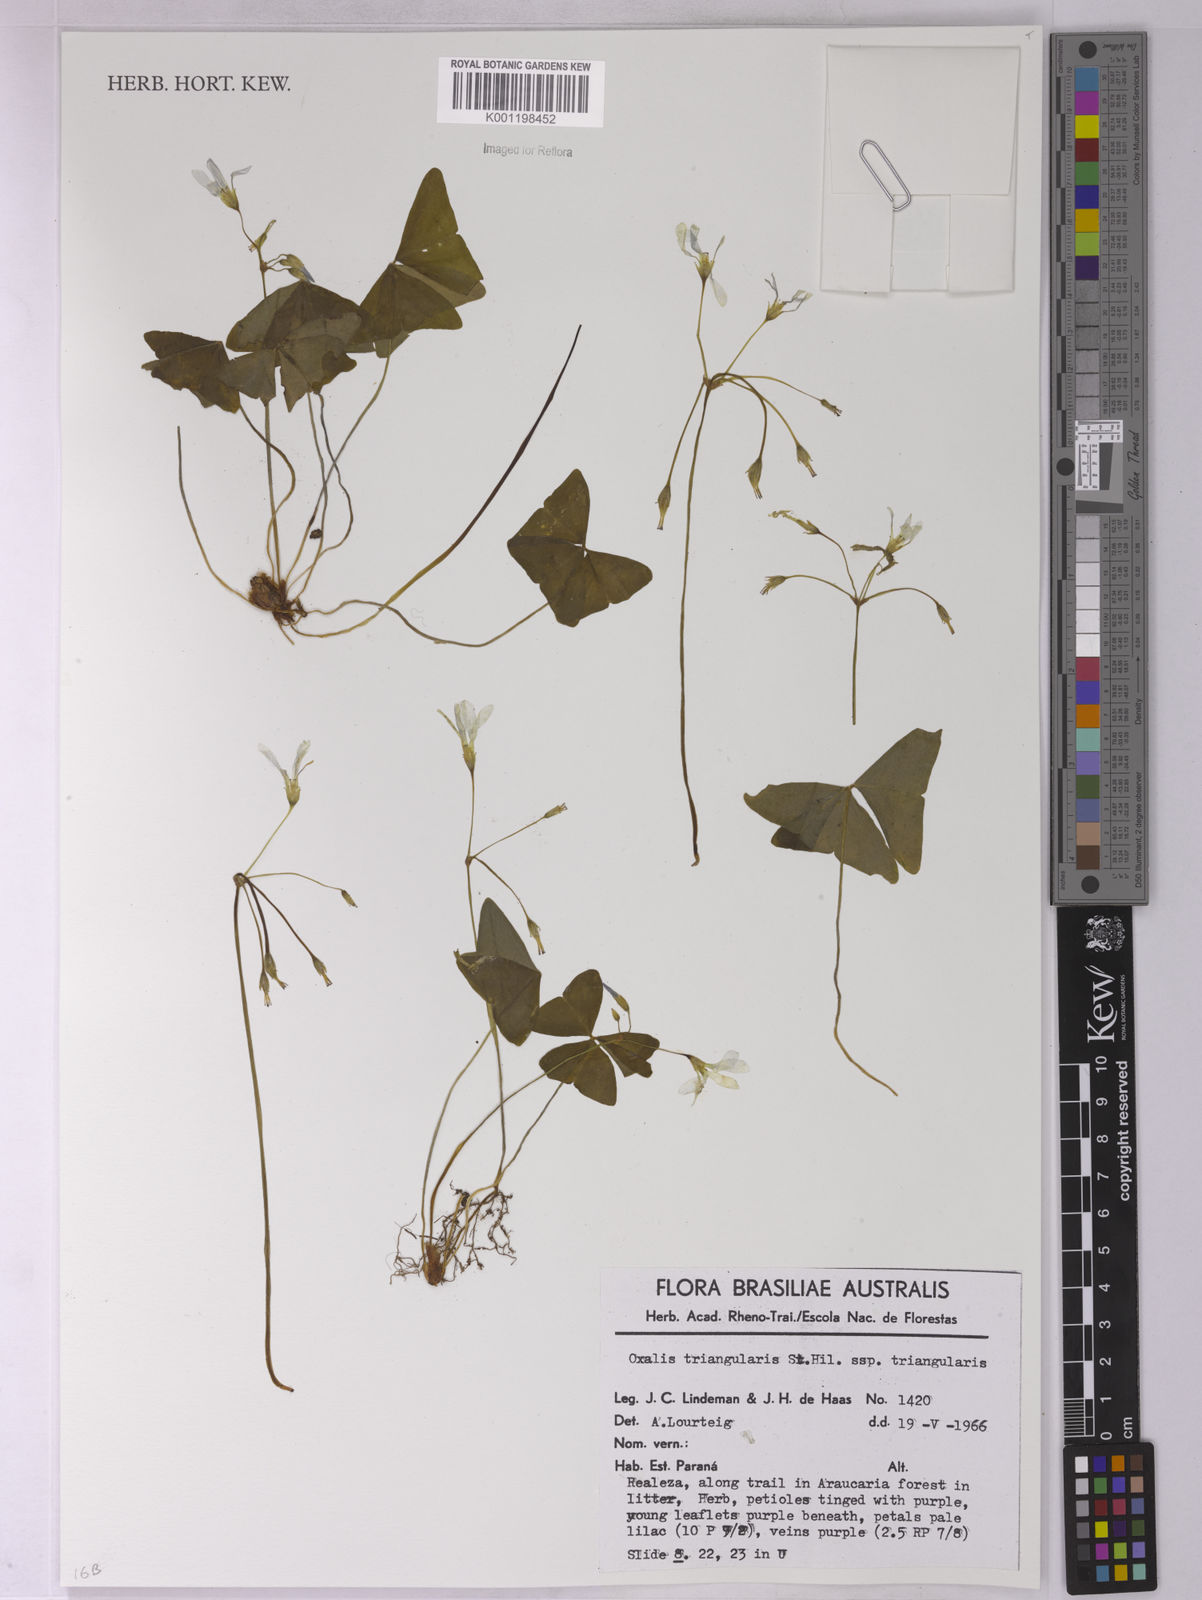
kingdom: Plantae
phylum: Tracheophyta
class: Magnoliopsida
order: Oxalidales
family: Oxalidaceae
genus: Oxalis
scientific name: Oxalis triangularis
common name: Wood sorrel
